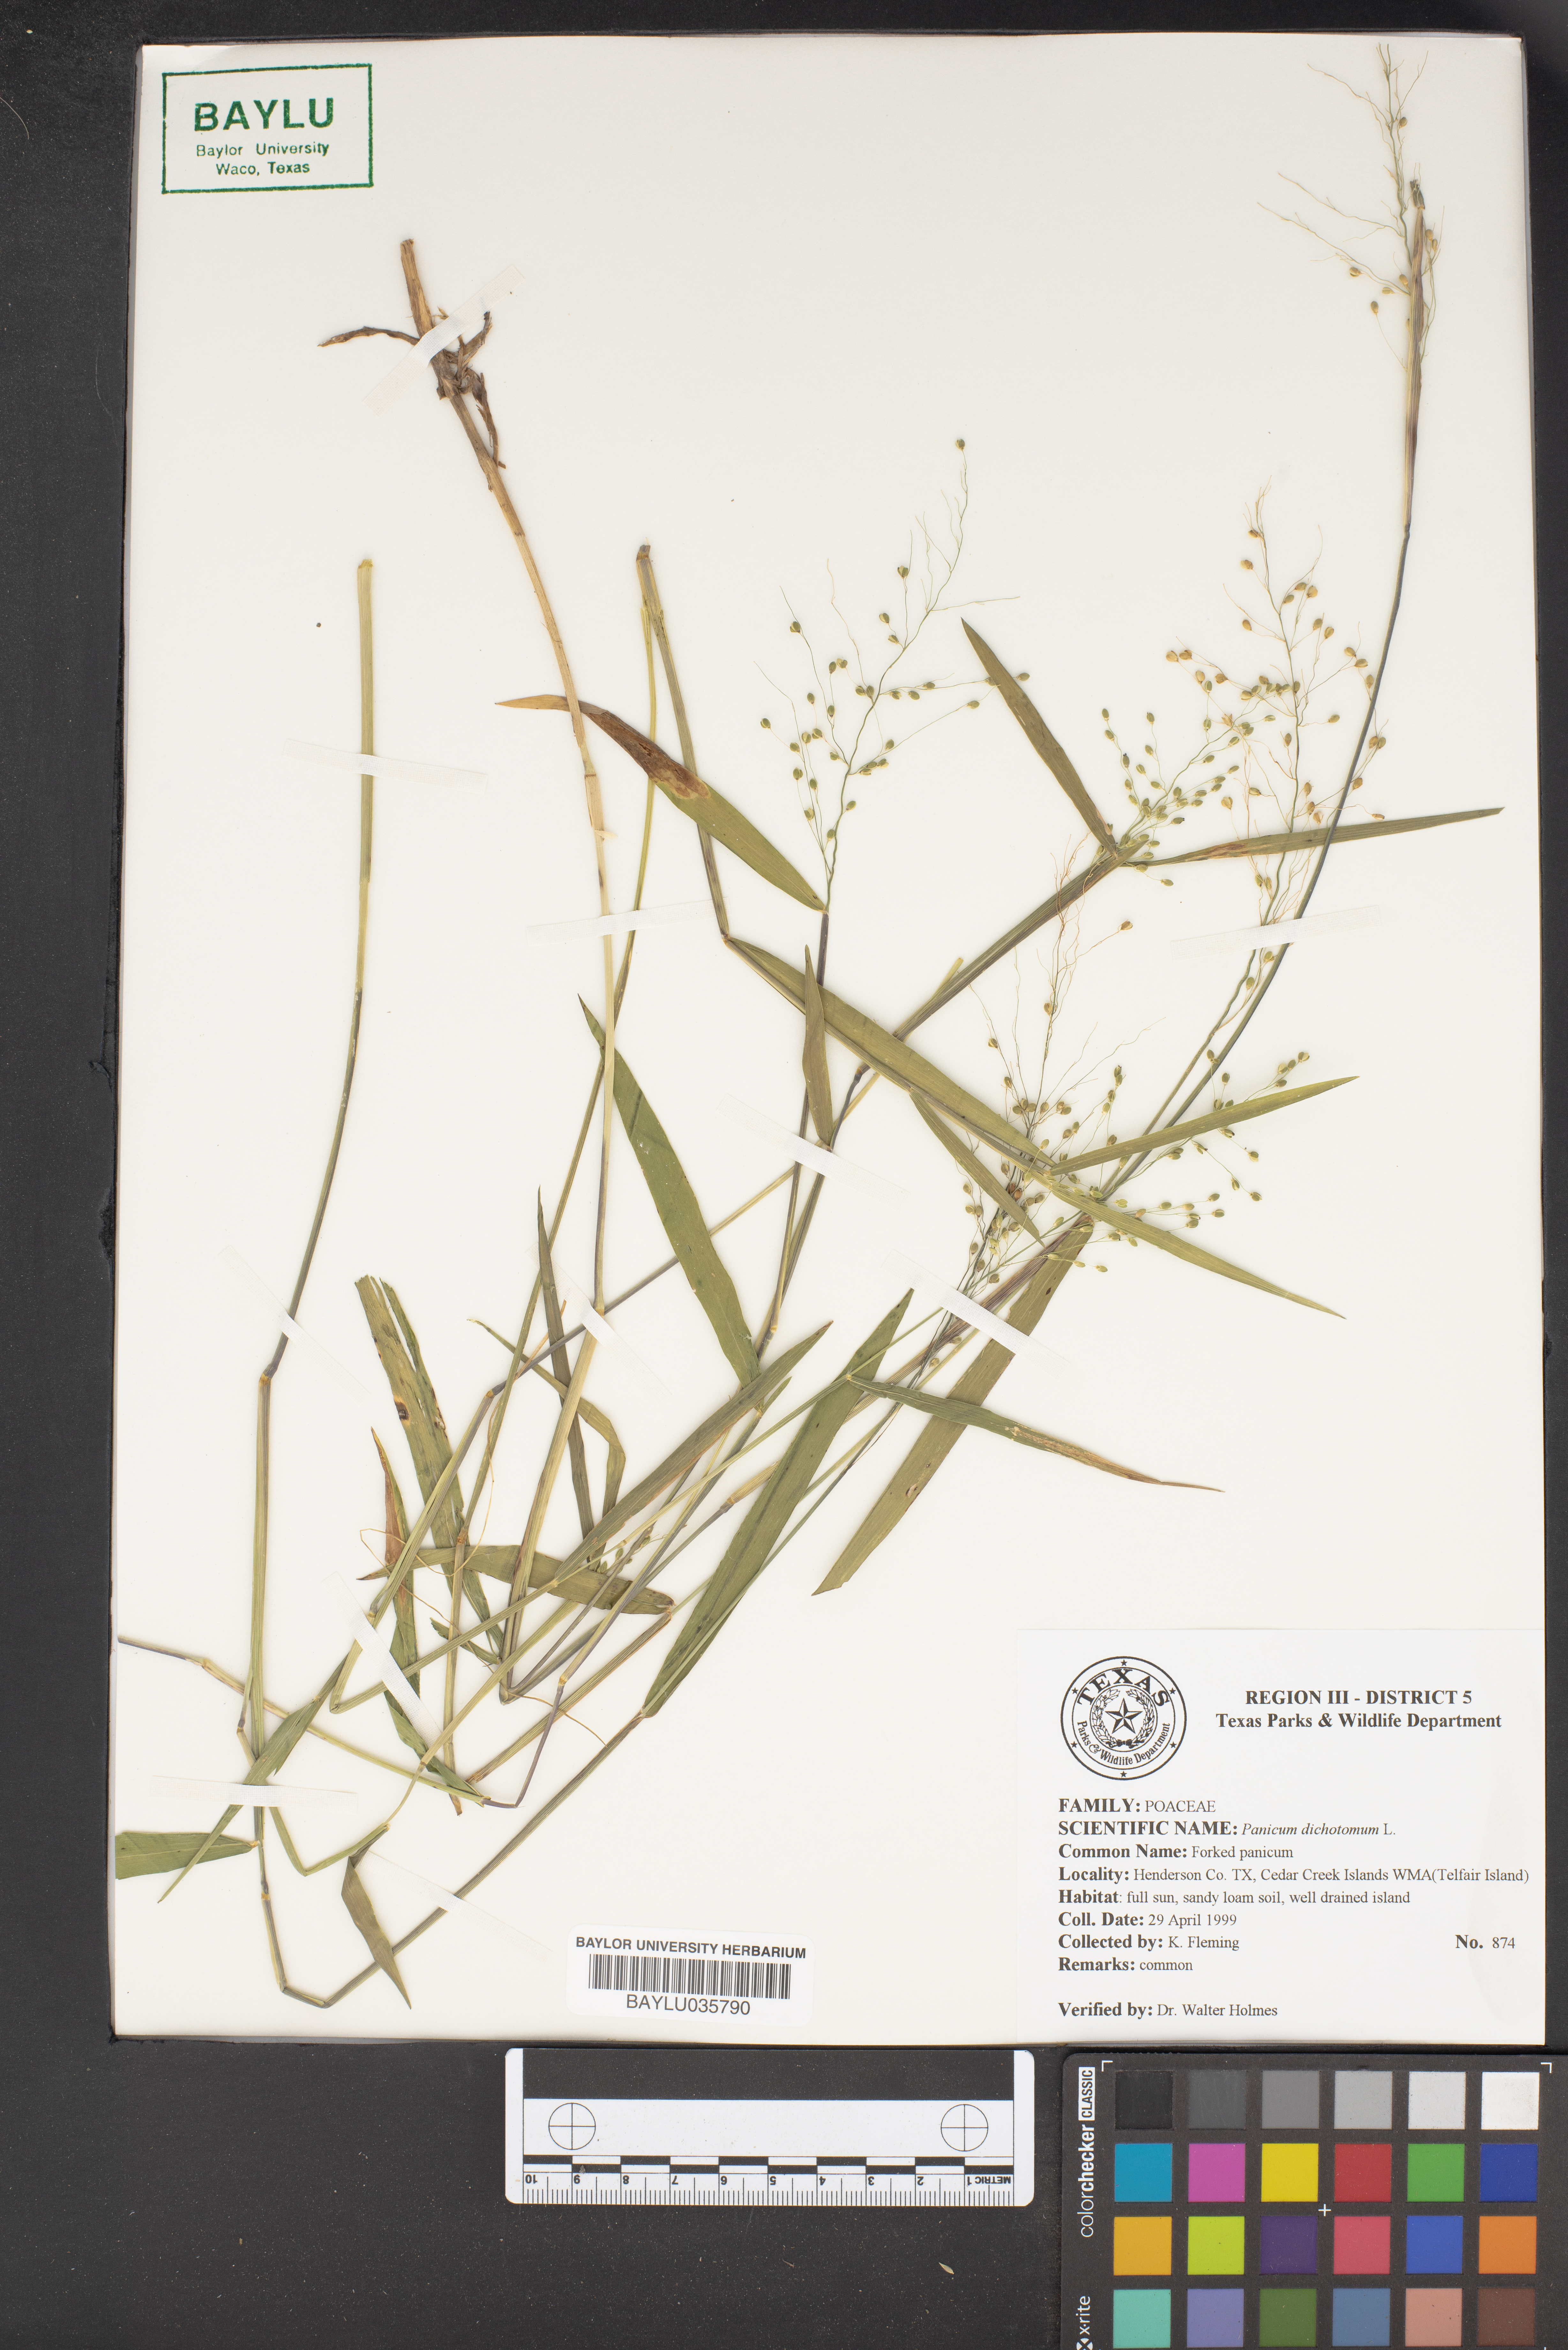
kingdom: Plantae
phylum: Tracheophyta
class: Liliopsida
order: Poales
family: Poaceae
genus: Dichanthelium
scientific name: Dichanthelium dichotomum
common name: Cypress panicgrass
